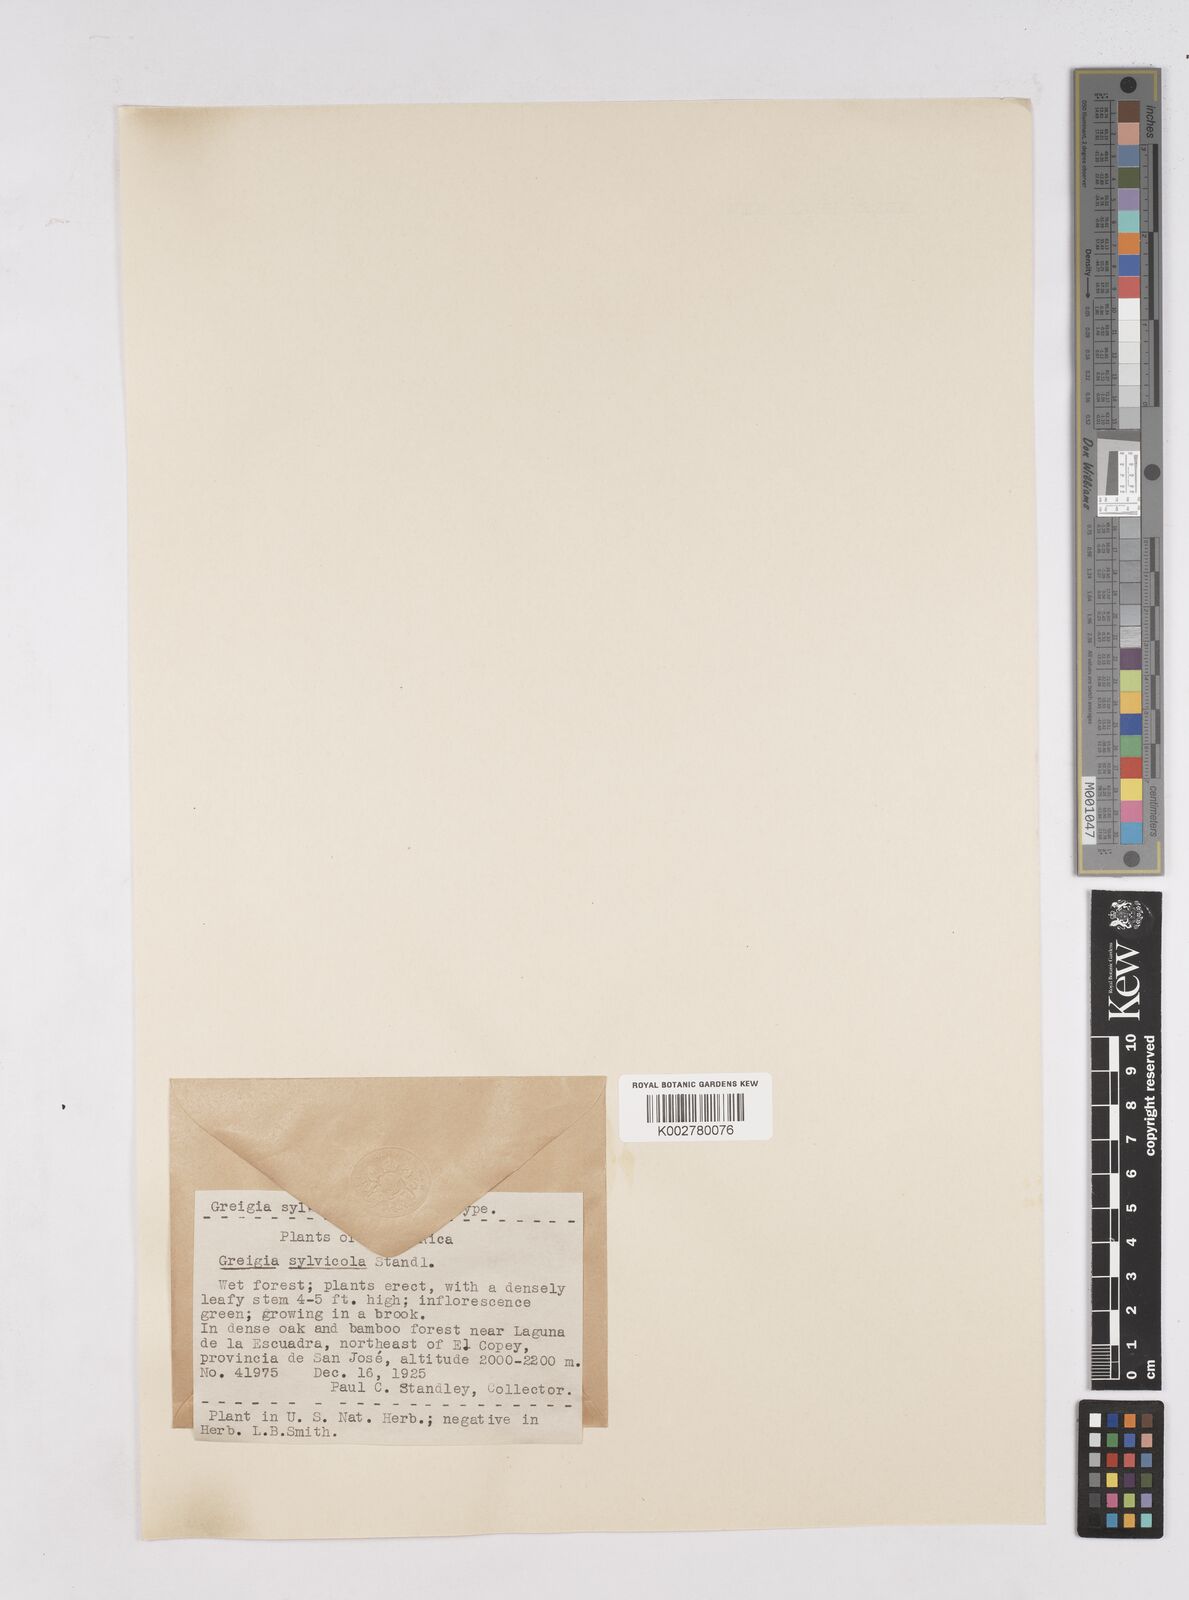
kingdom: Plantae
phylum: Tracheophyta
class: Liliopsida
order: Poales
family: Bromeliaceae
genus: Greigia
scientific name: Greigia sylvicola
